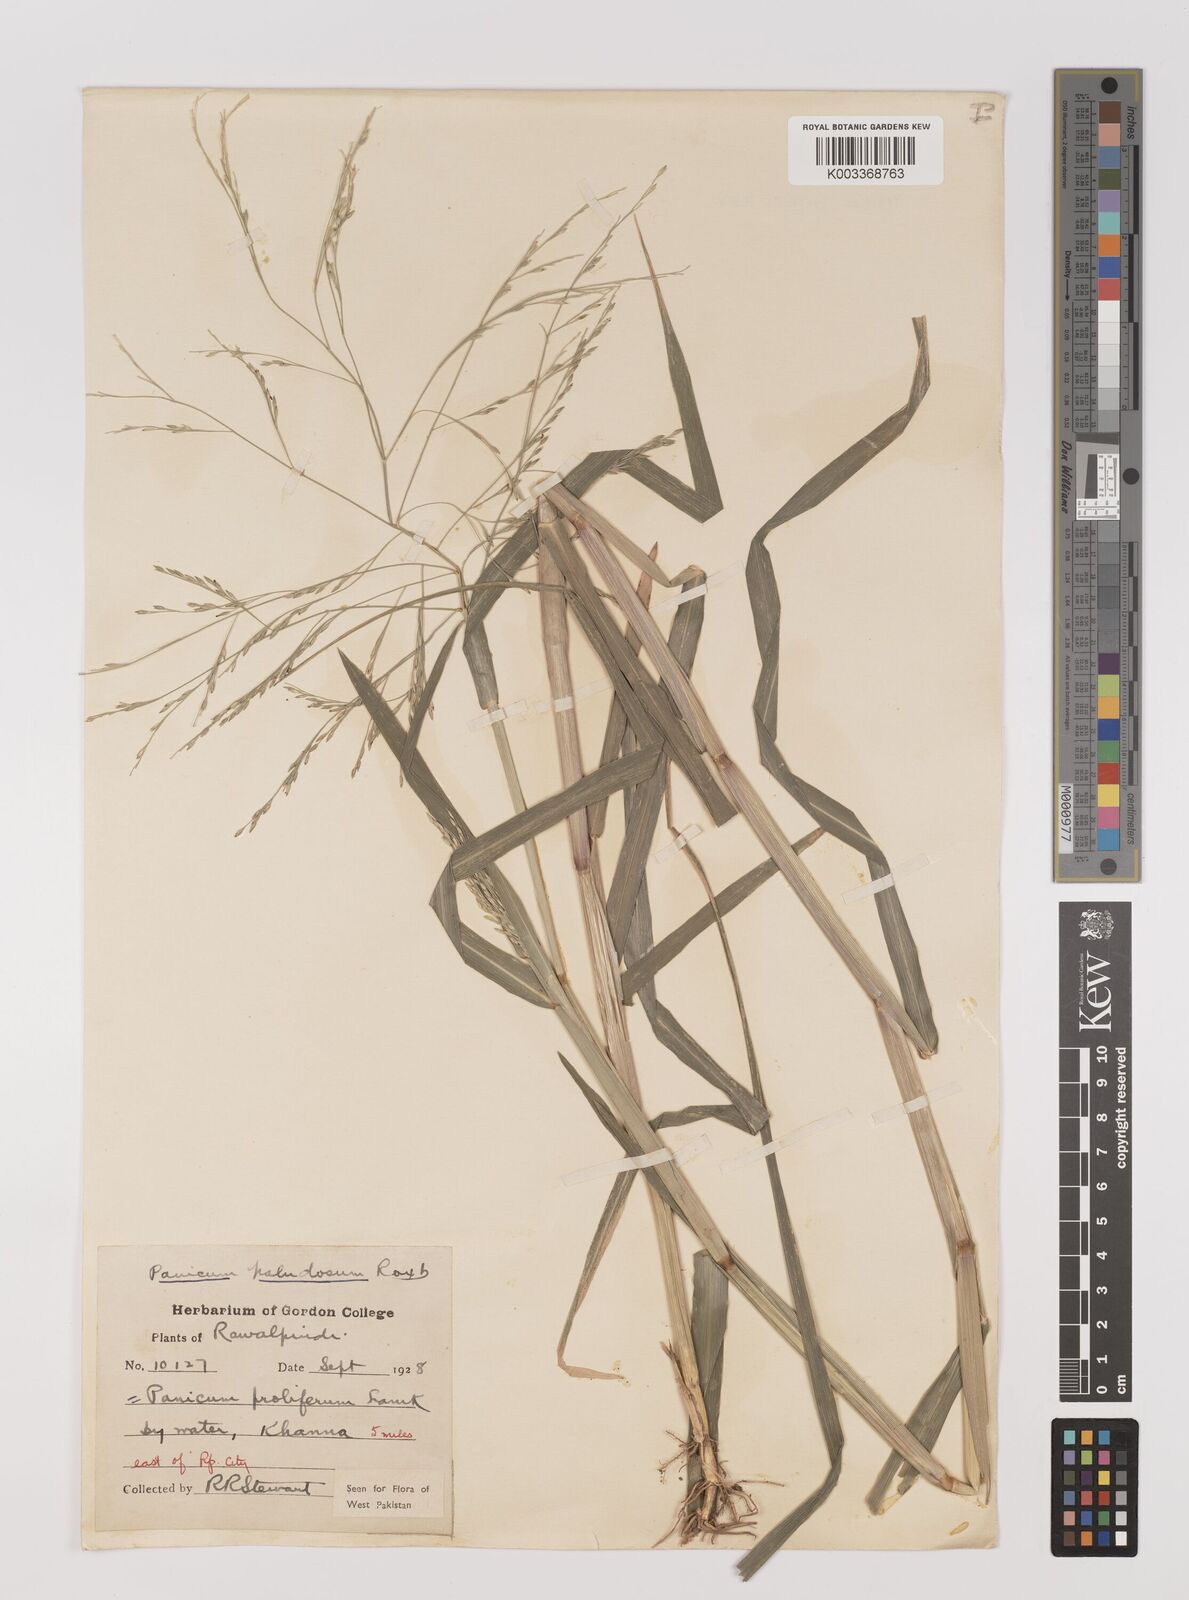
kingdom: Plantae
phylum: Tracheophyta
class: Liliopsida
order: Poales
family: Poaceae
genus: Louisiella
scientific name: Louisiella paludosa
